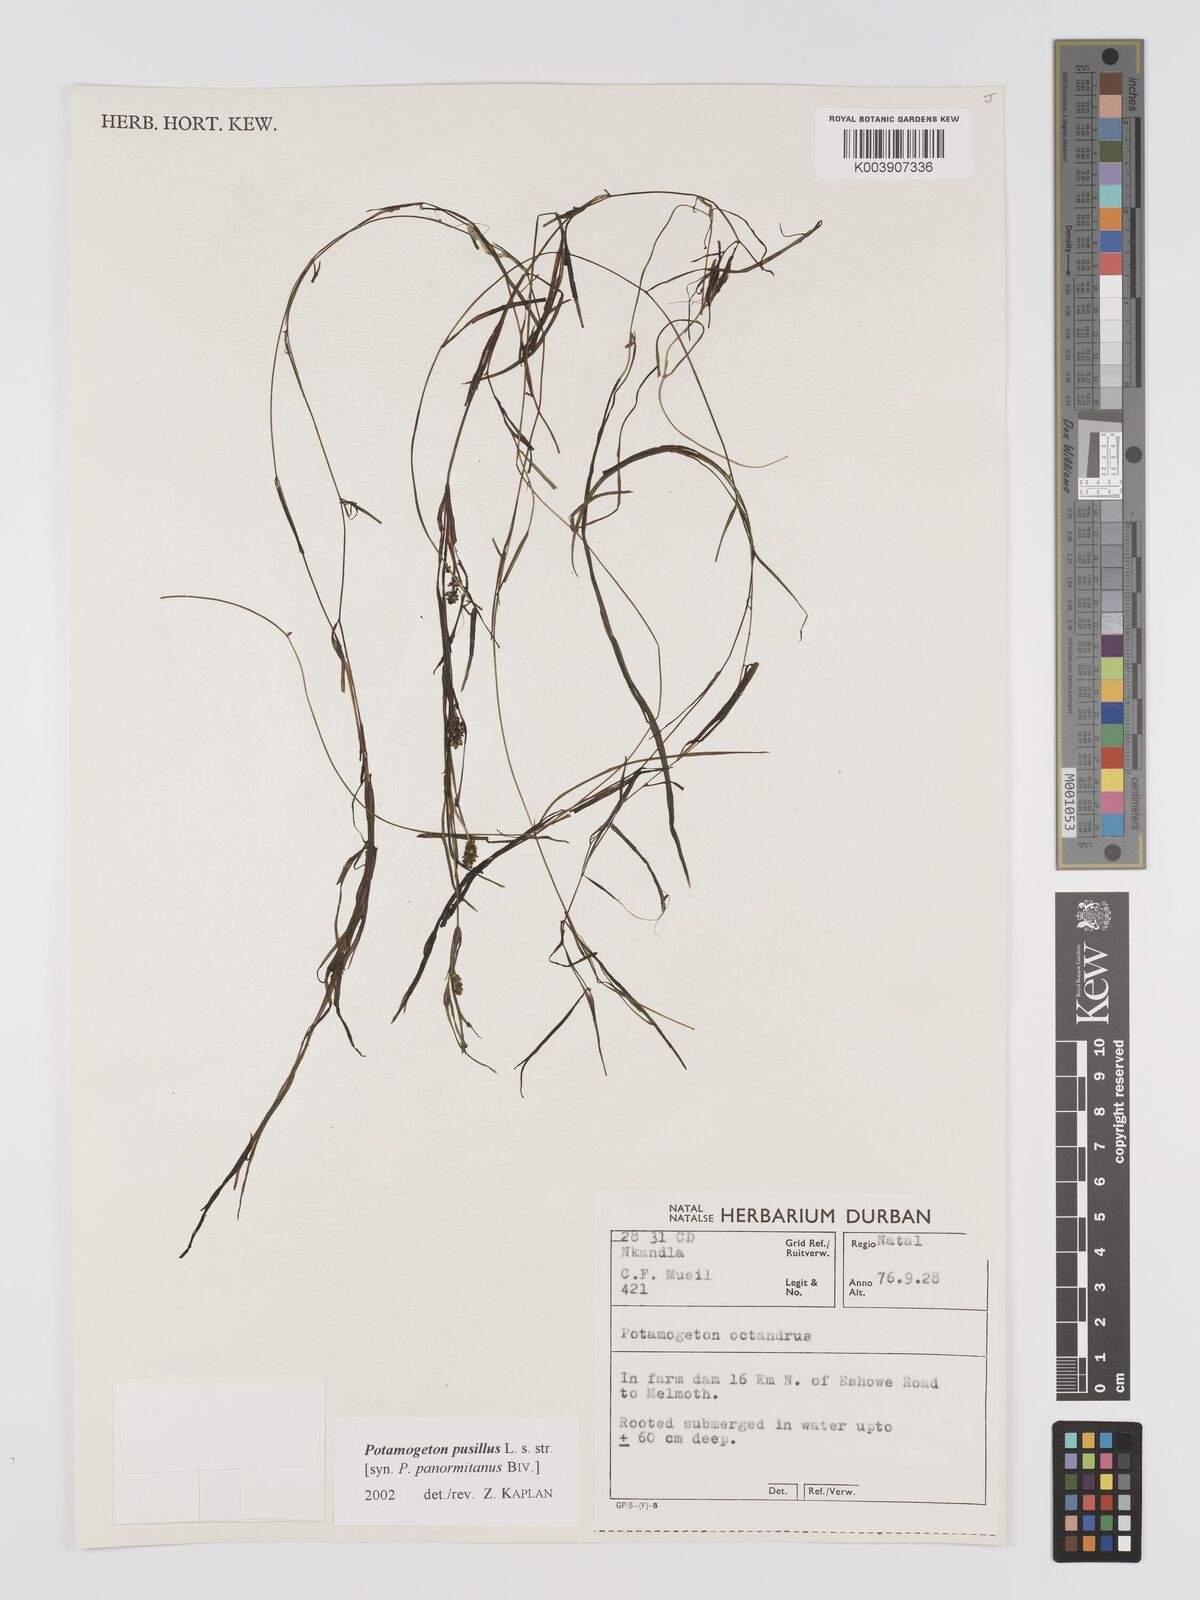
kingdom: Plantae
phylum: Tracheophyta
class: Liliopsida
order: Alismatales
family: Potamogetonaceae
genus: Potamogeton
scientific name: Potamogeton pusillus
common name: Lesser pondweed
